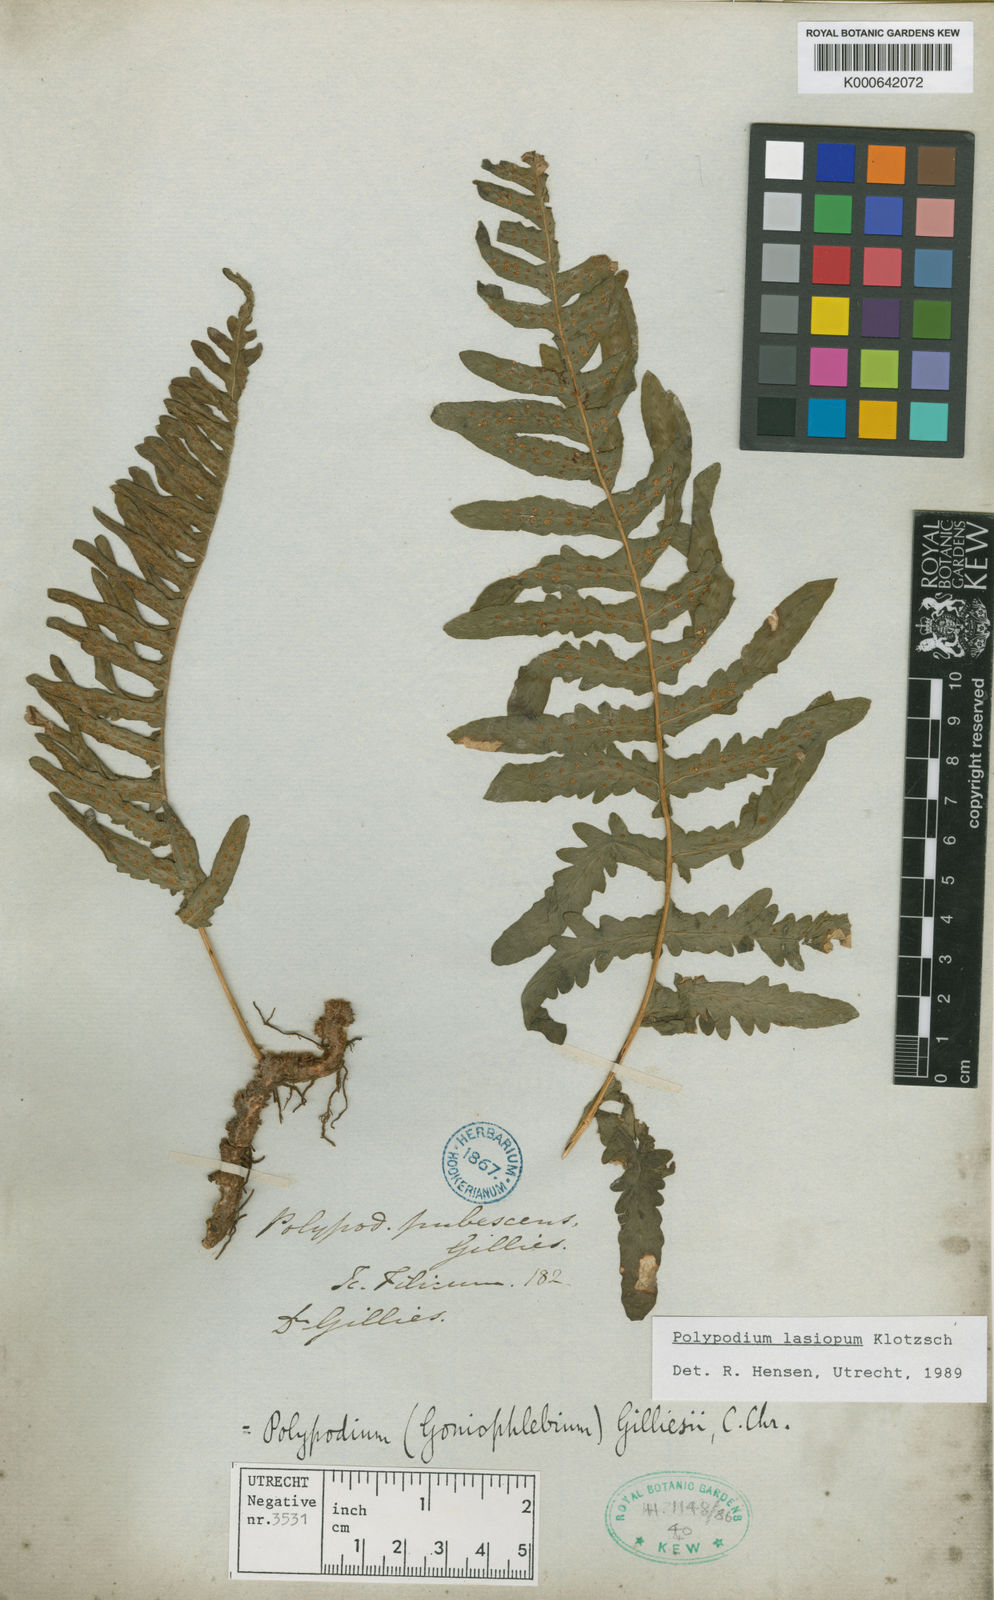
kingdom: Plantae
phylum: Tracheophyta
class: Polypodiopsida
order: Polypodiales
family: Polypodiaceae
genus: Serpocaulon
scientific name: Serpocaulon lasiopus
